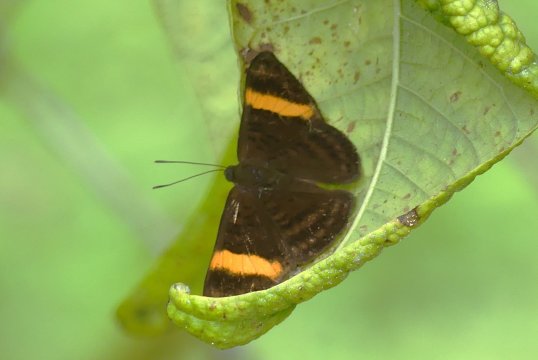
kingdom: Animalia
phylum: Arthropoda
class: Insecta
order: Lepidoptera
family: Lycaenidae
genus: Emesis
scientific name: Emesis cypria
